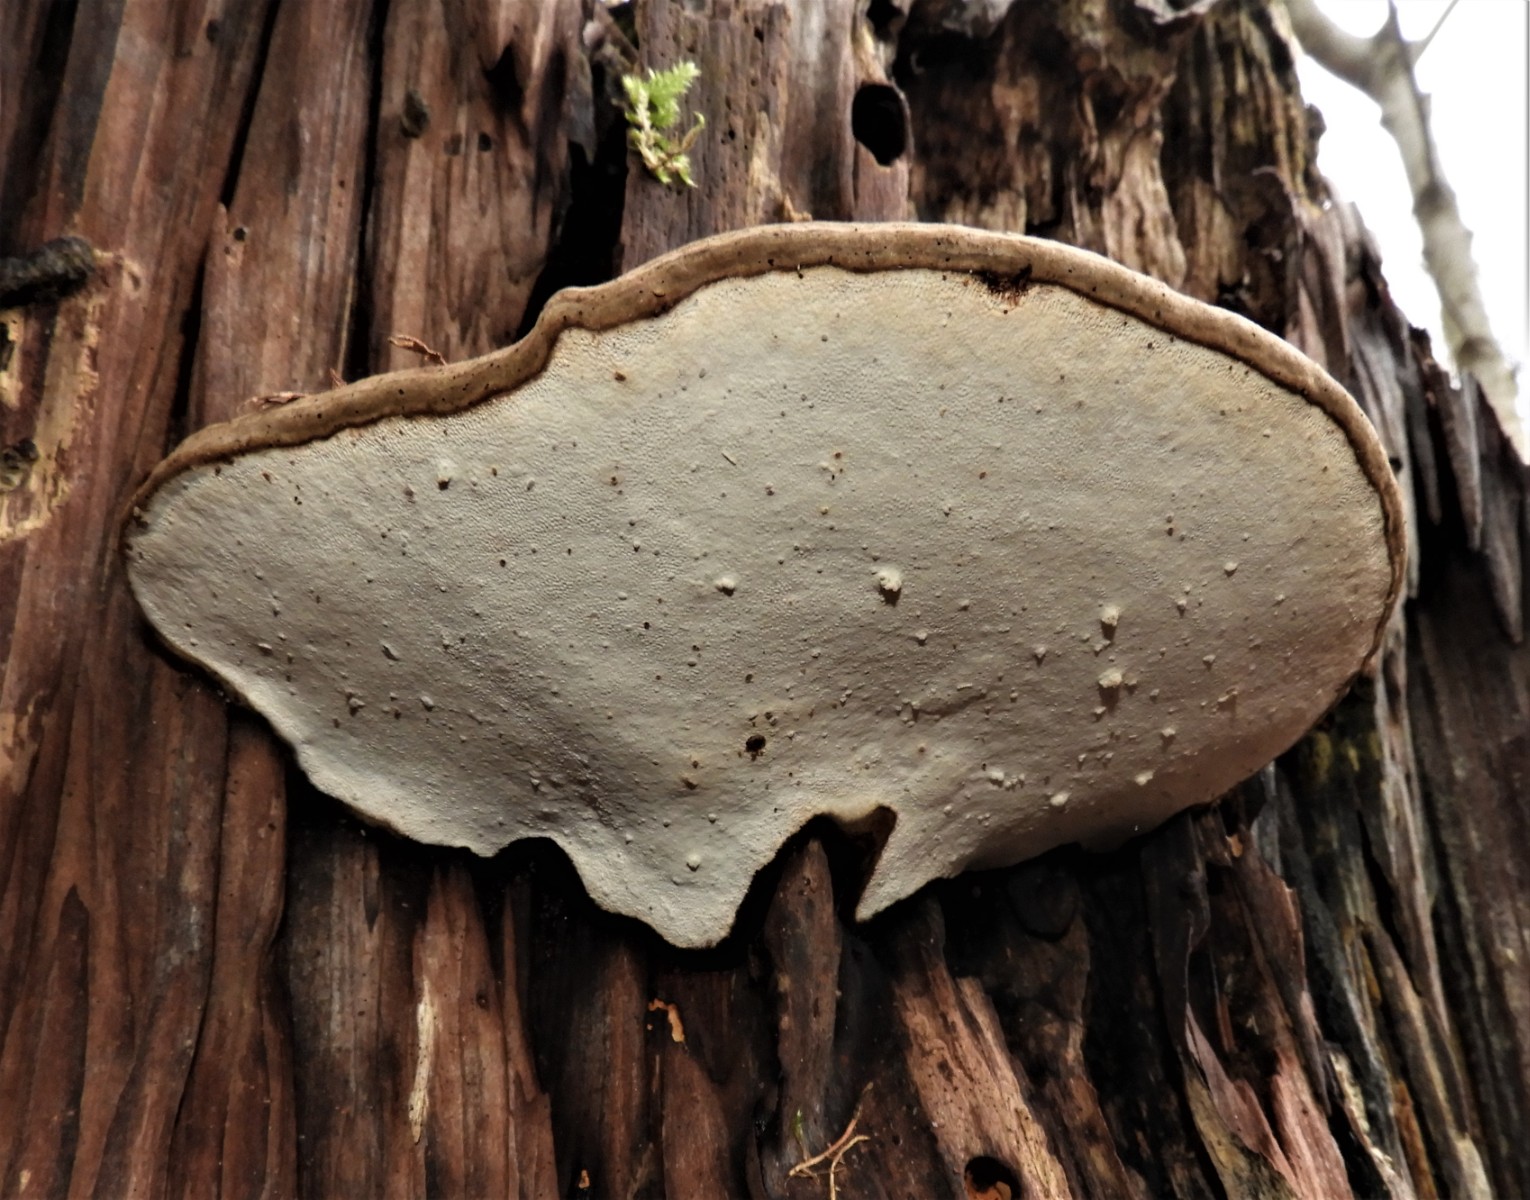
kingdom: Fungi
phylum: Basidiomycota
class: Agaricomycetes
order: Polyporales
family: Polyporaceae
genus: Ganoderma
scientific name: Ganoderma applanatum
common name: flad lakporesvamp
